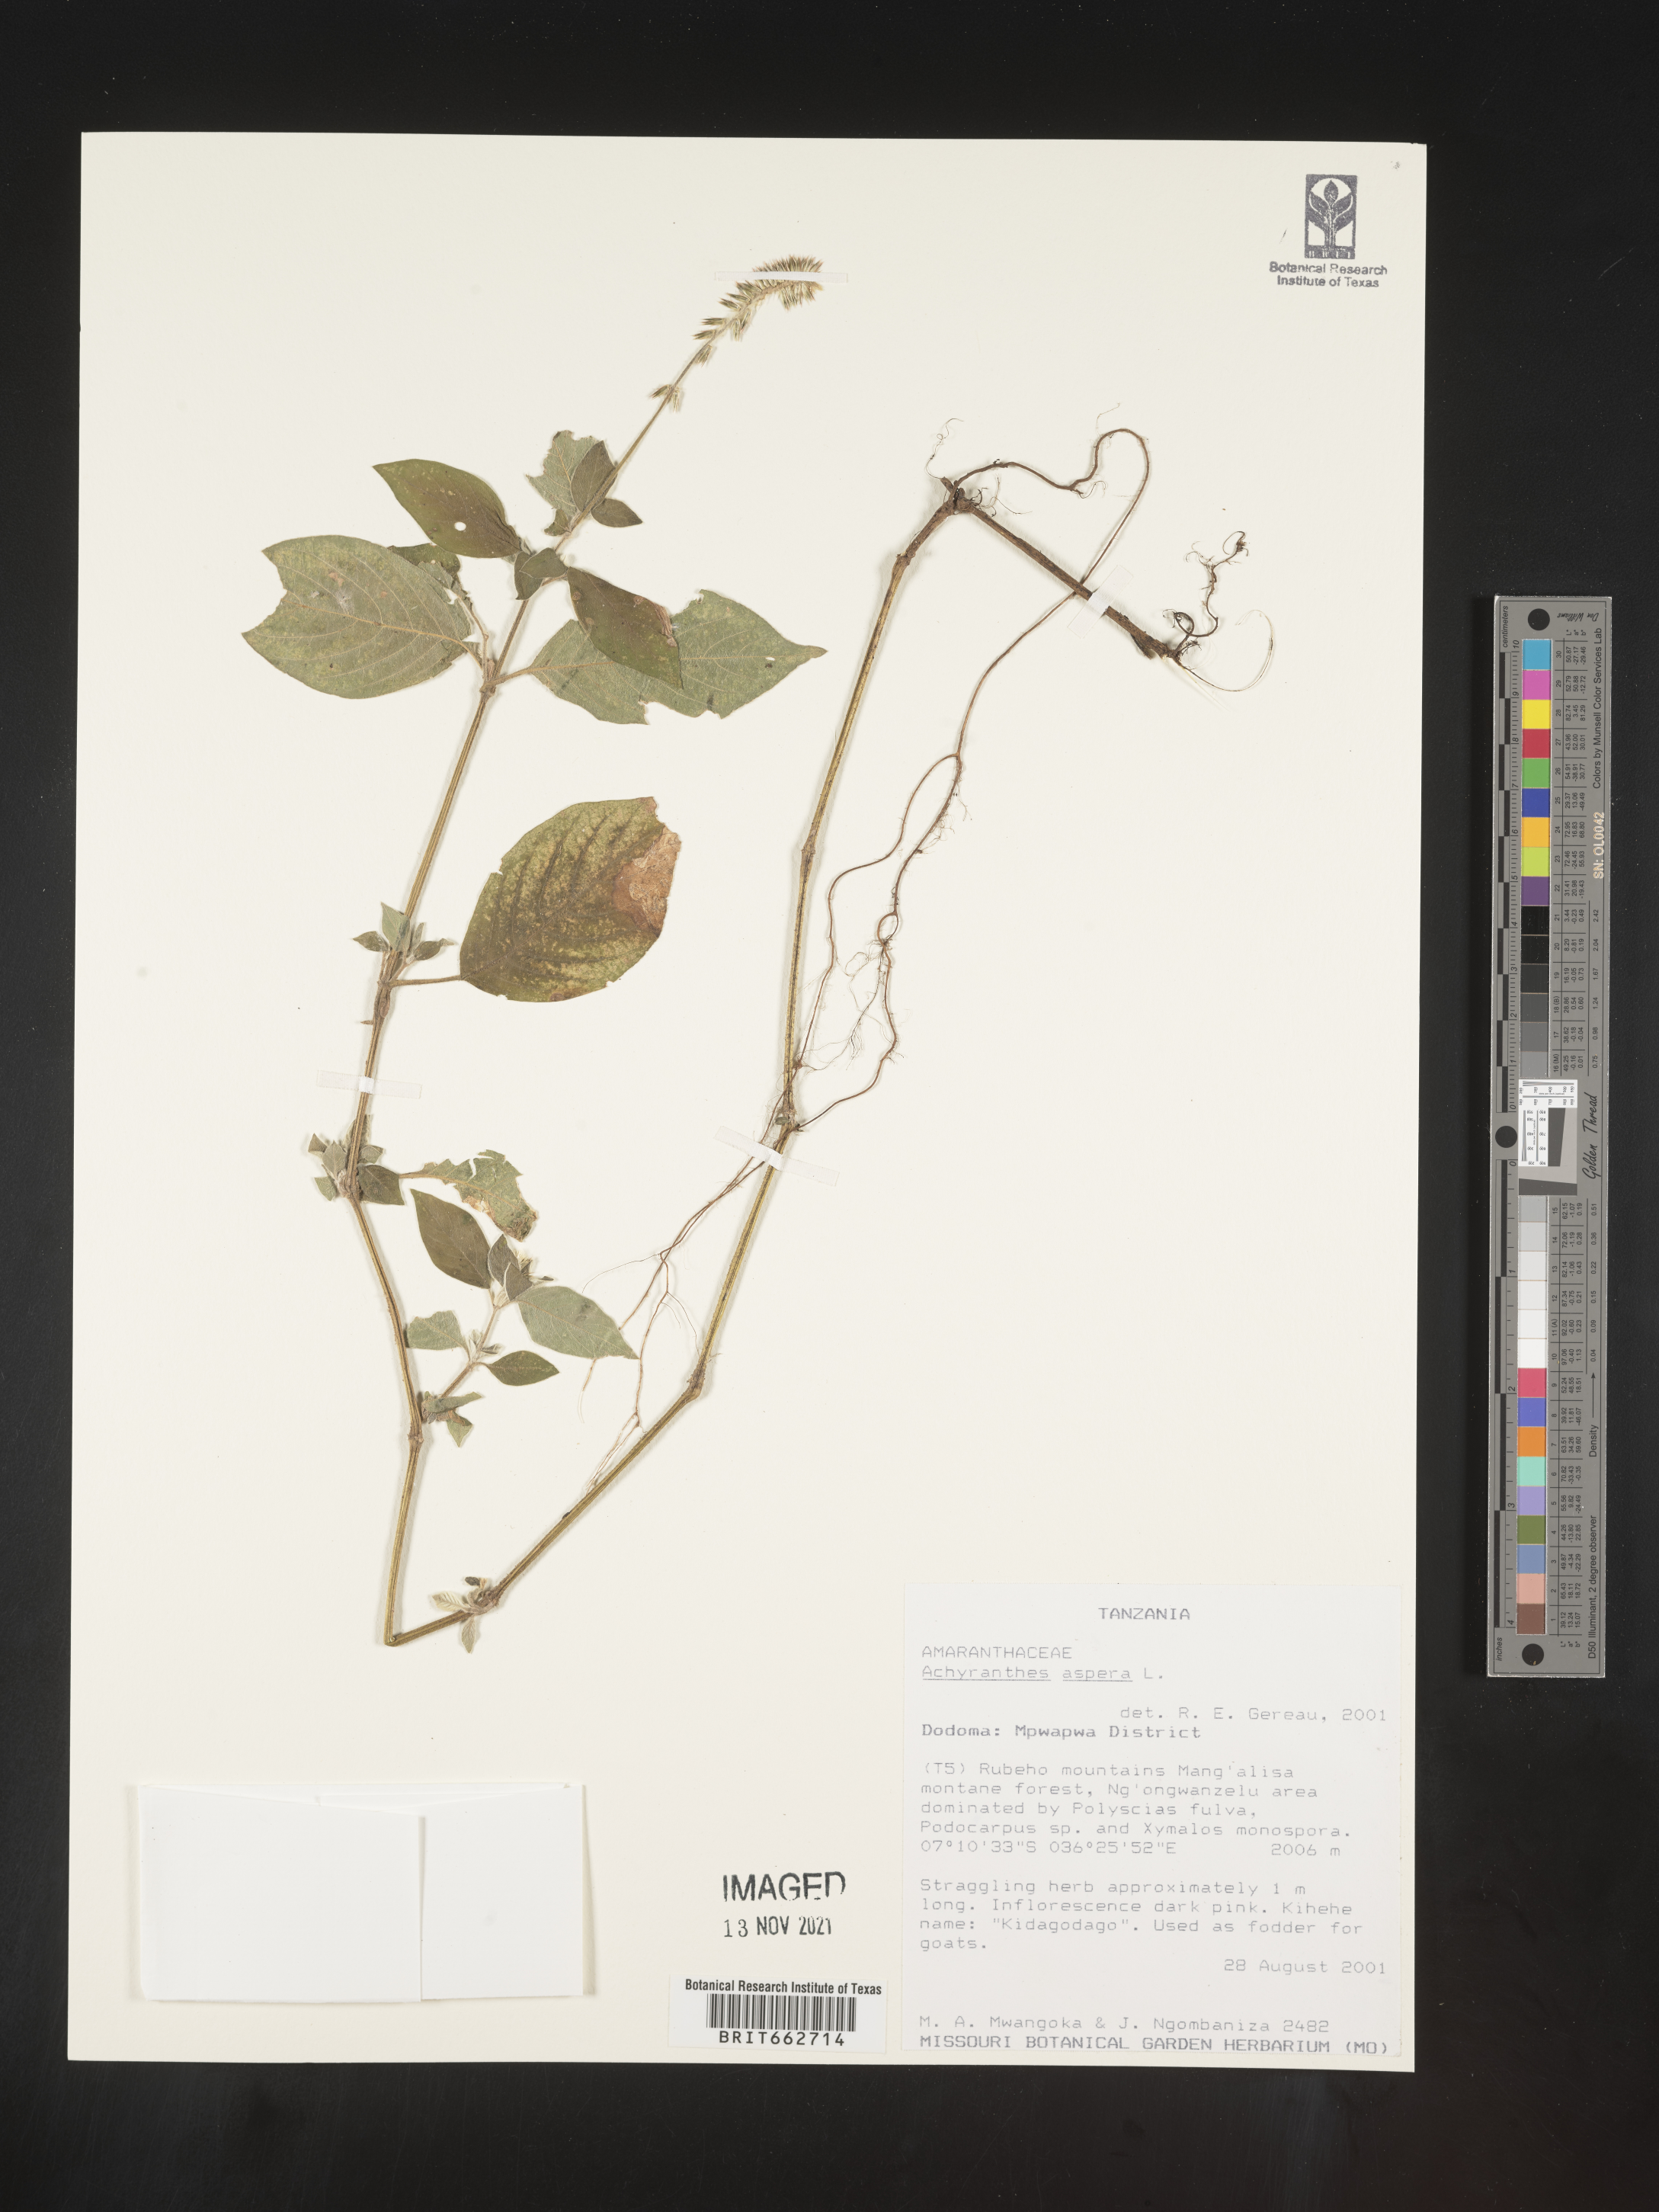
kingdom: Plantae
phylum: Tracheophyta
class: Magnoliopsida
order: Caryophyllales
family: Amaranthaceae
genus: Achyranthes
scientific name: Achyranthes
